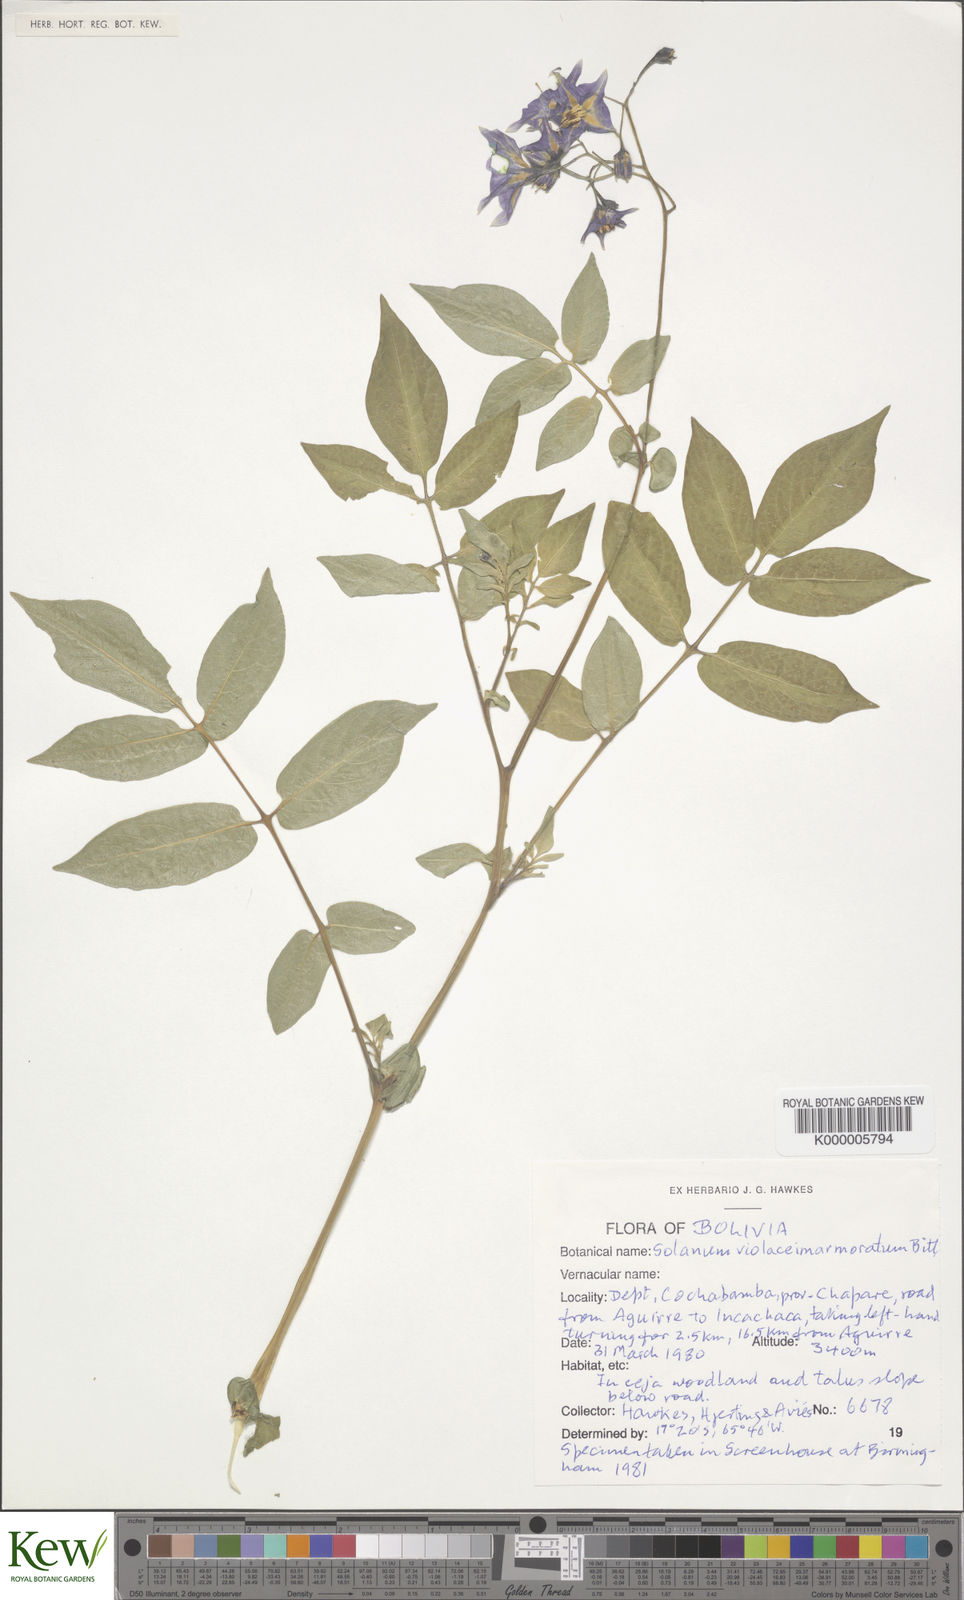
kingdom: Plantae
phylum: Tracheophyta
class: Magnoliopsida
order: Solanales
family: Solanaceae
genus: Solanum
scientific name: Solanum violaceimarmoratum
